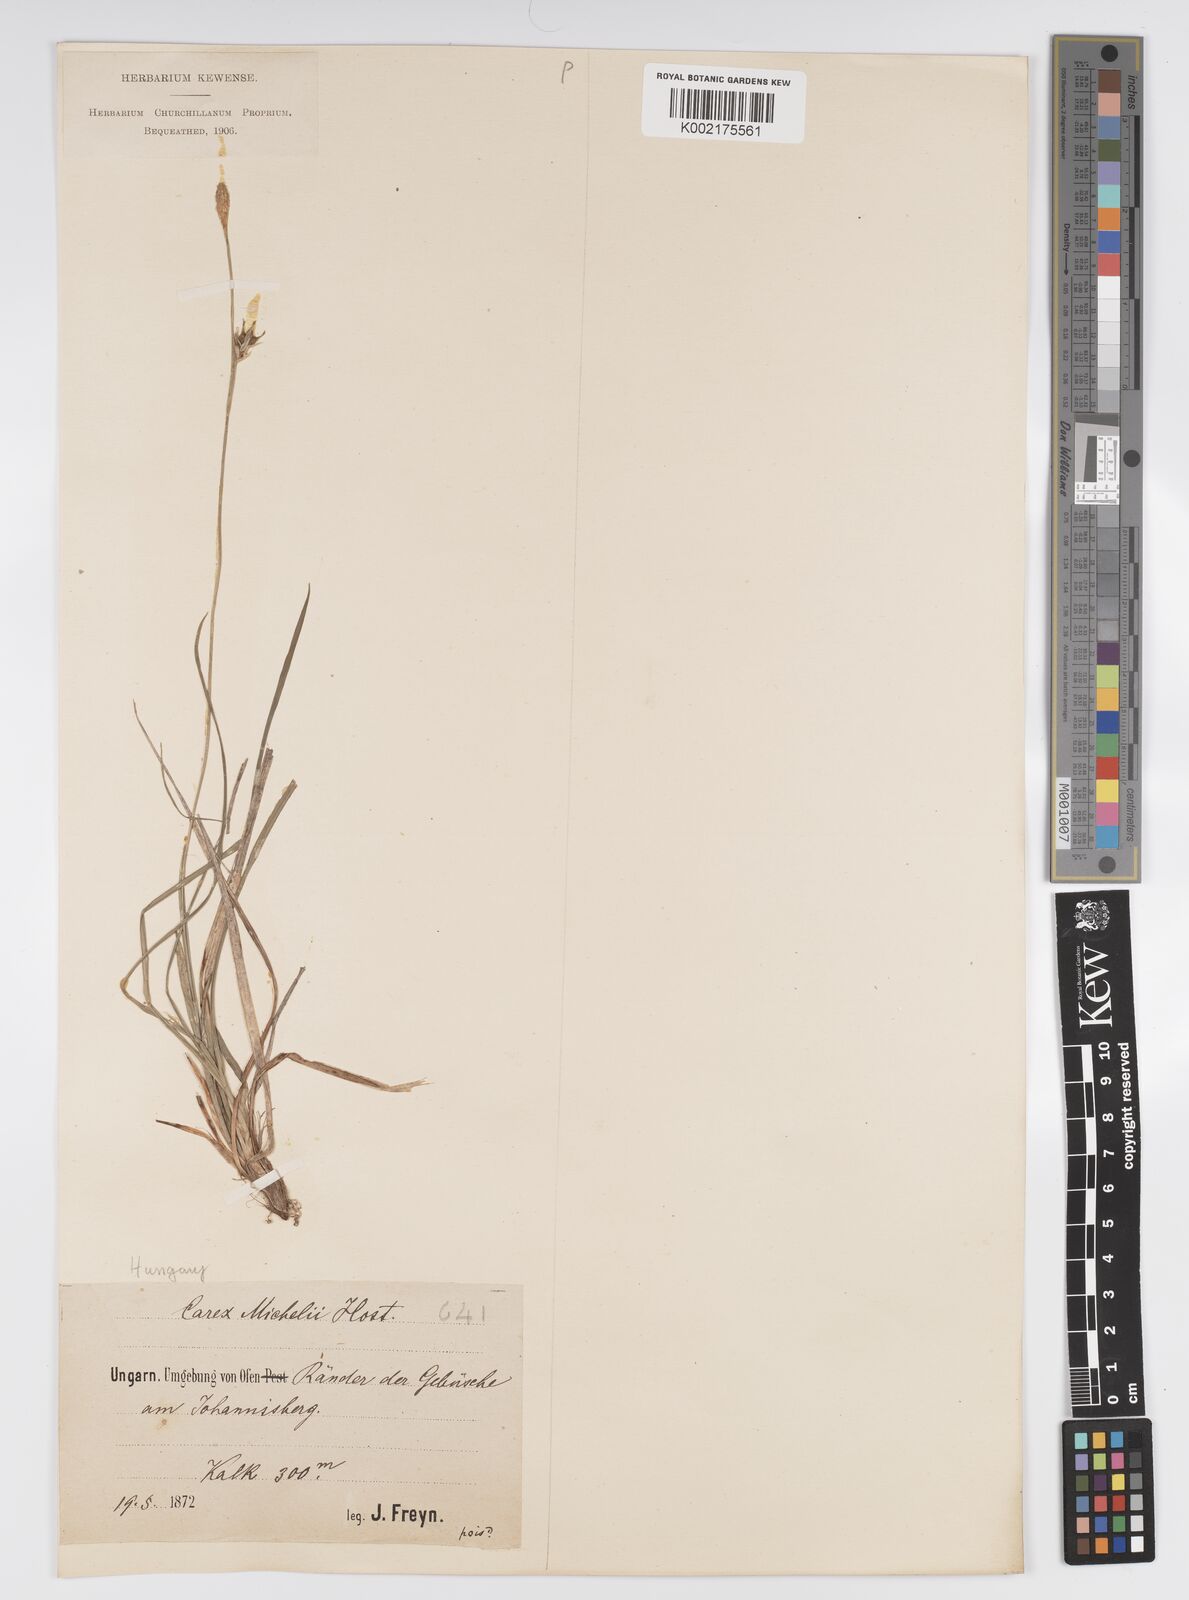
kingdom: Plantae
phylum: Tracheophyta
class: Liliopsida
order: Poales
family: Cyperaceae
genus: Carex
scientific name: Carex michelii
